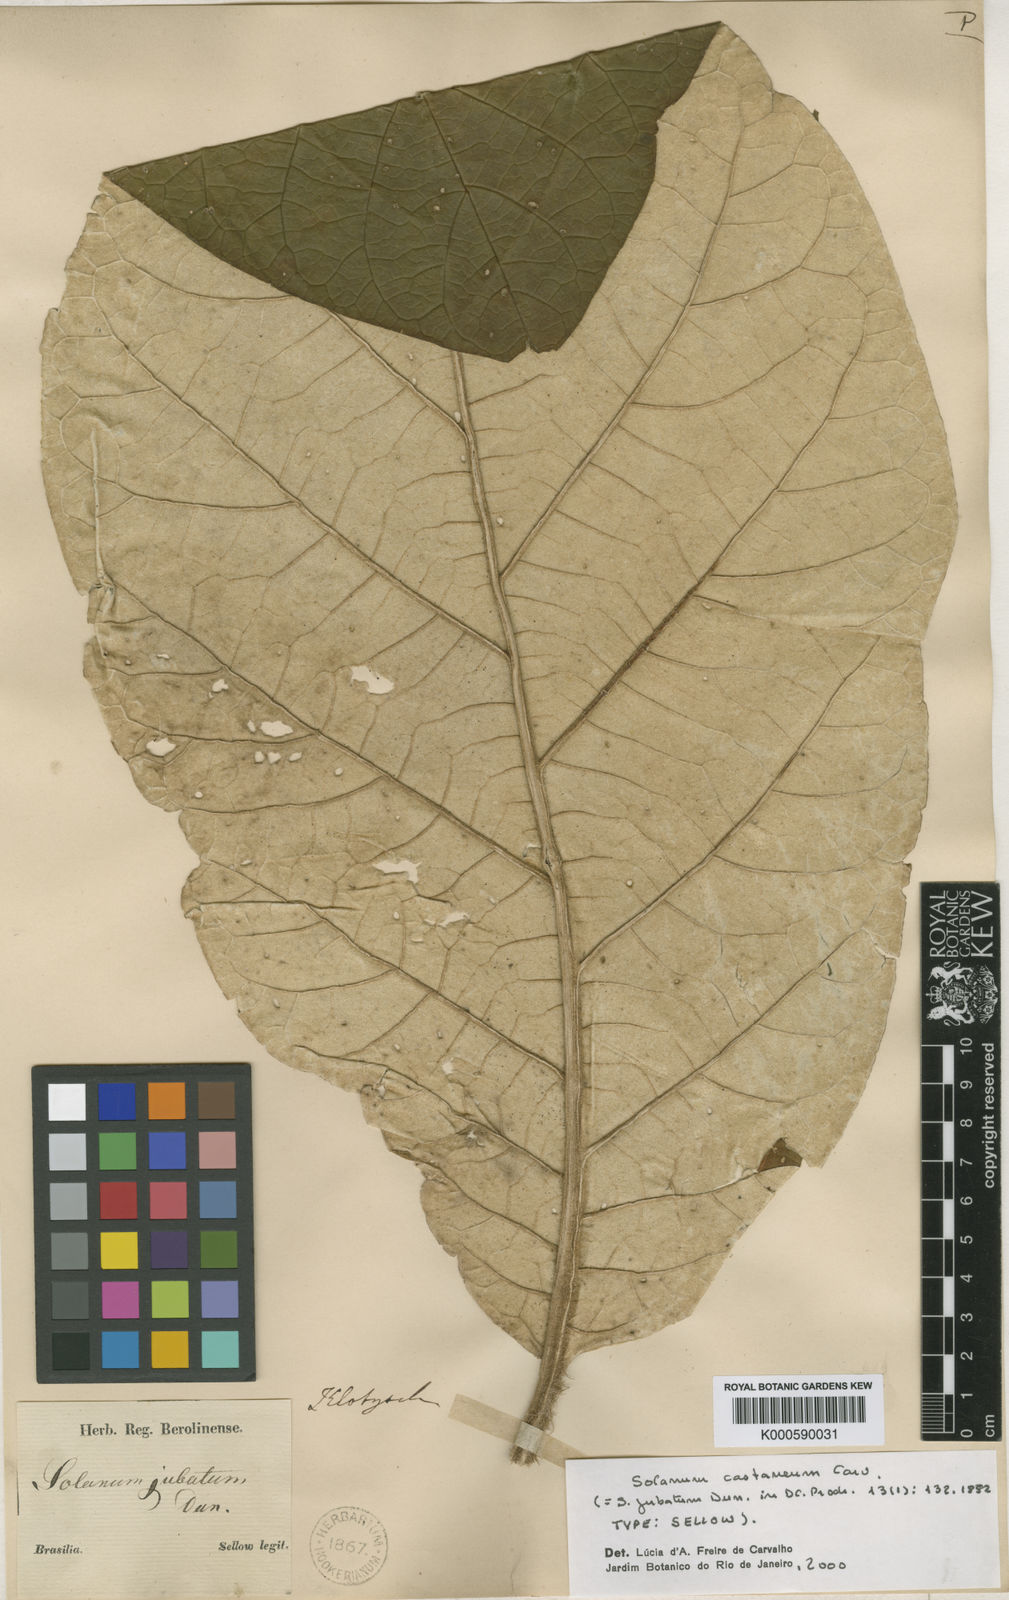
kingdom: Plantae
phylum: Tracheophyta
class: Magnoliopsida
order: Solanales
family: Solanaceae
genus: Solanum
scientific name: Solanum cernuum
